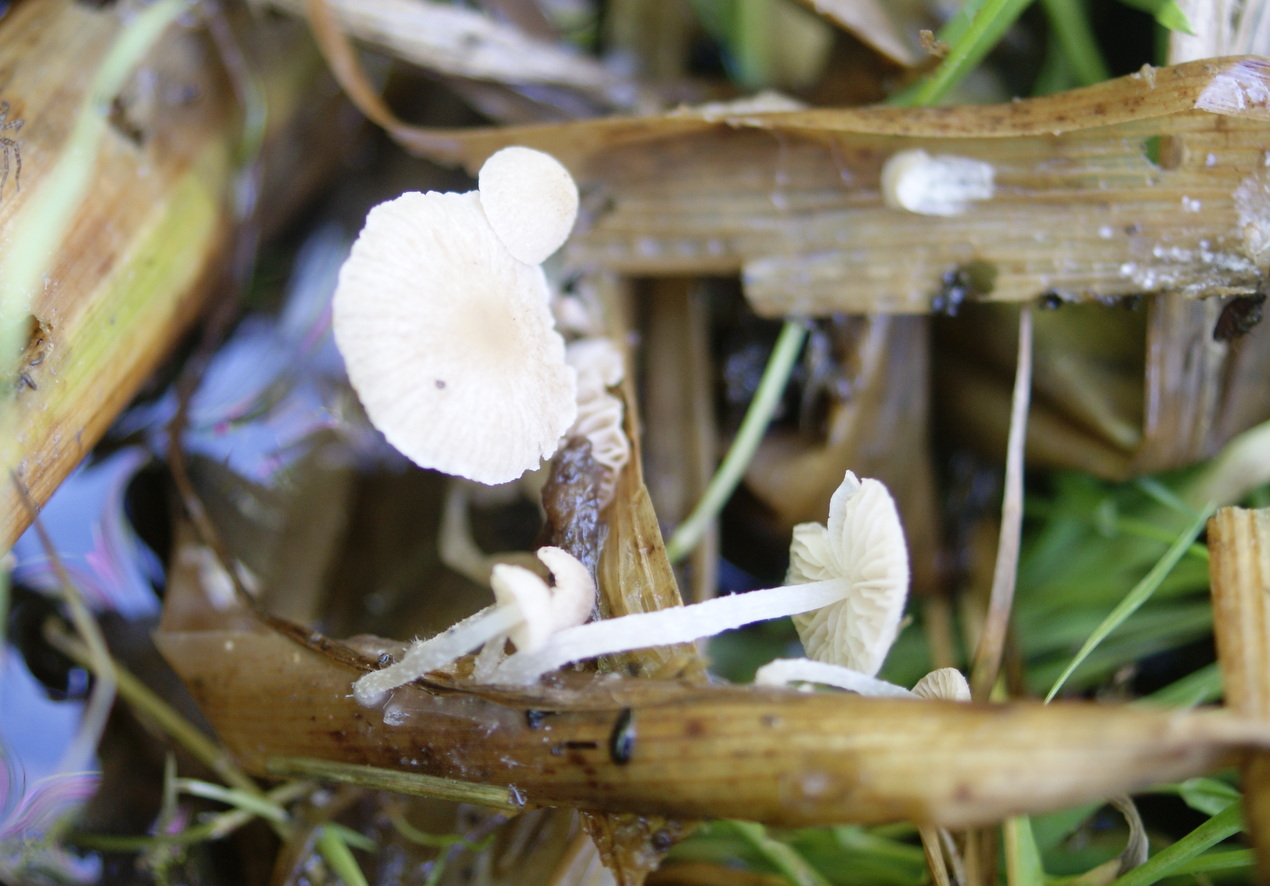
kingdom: Fungi
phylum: Basidiomycota
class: Agaricomycetes
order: Agaricales
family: Psathyrellaceae
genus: Candolleomyces
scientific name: Candolleomyces typhae
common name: dunhammer-mørkhat
